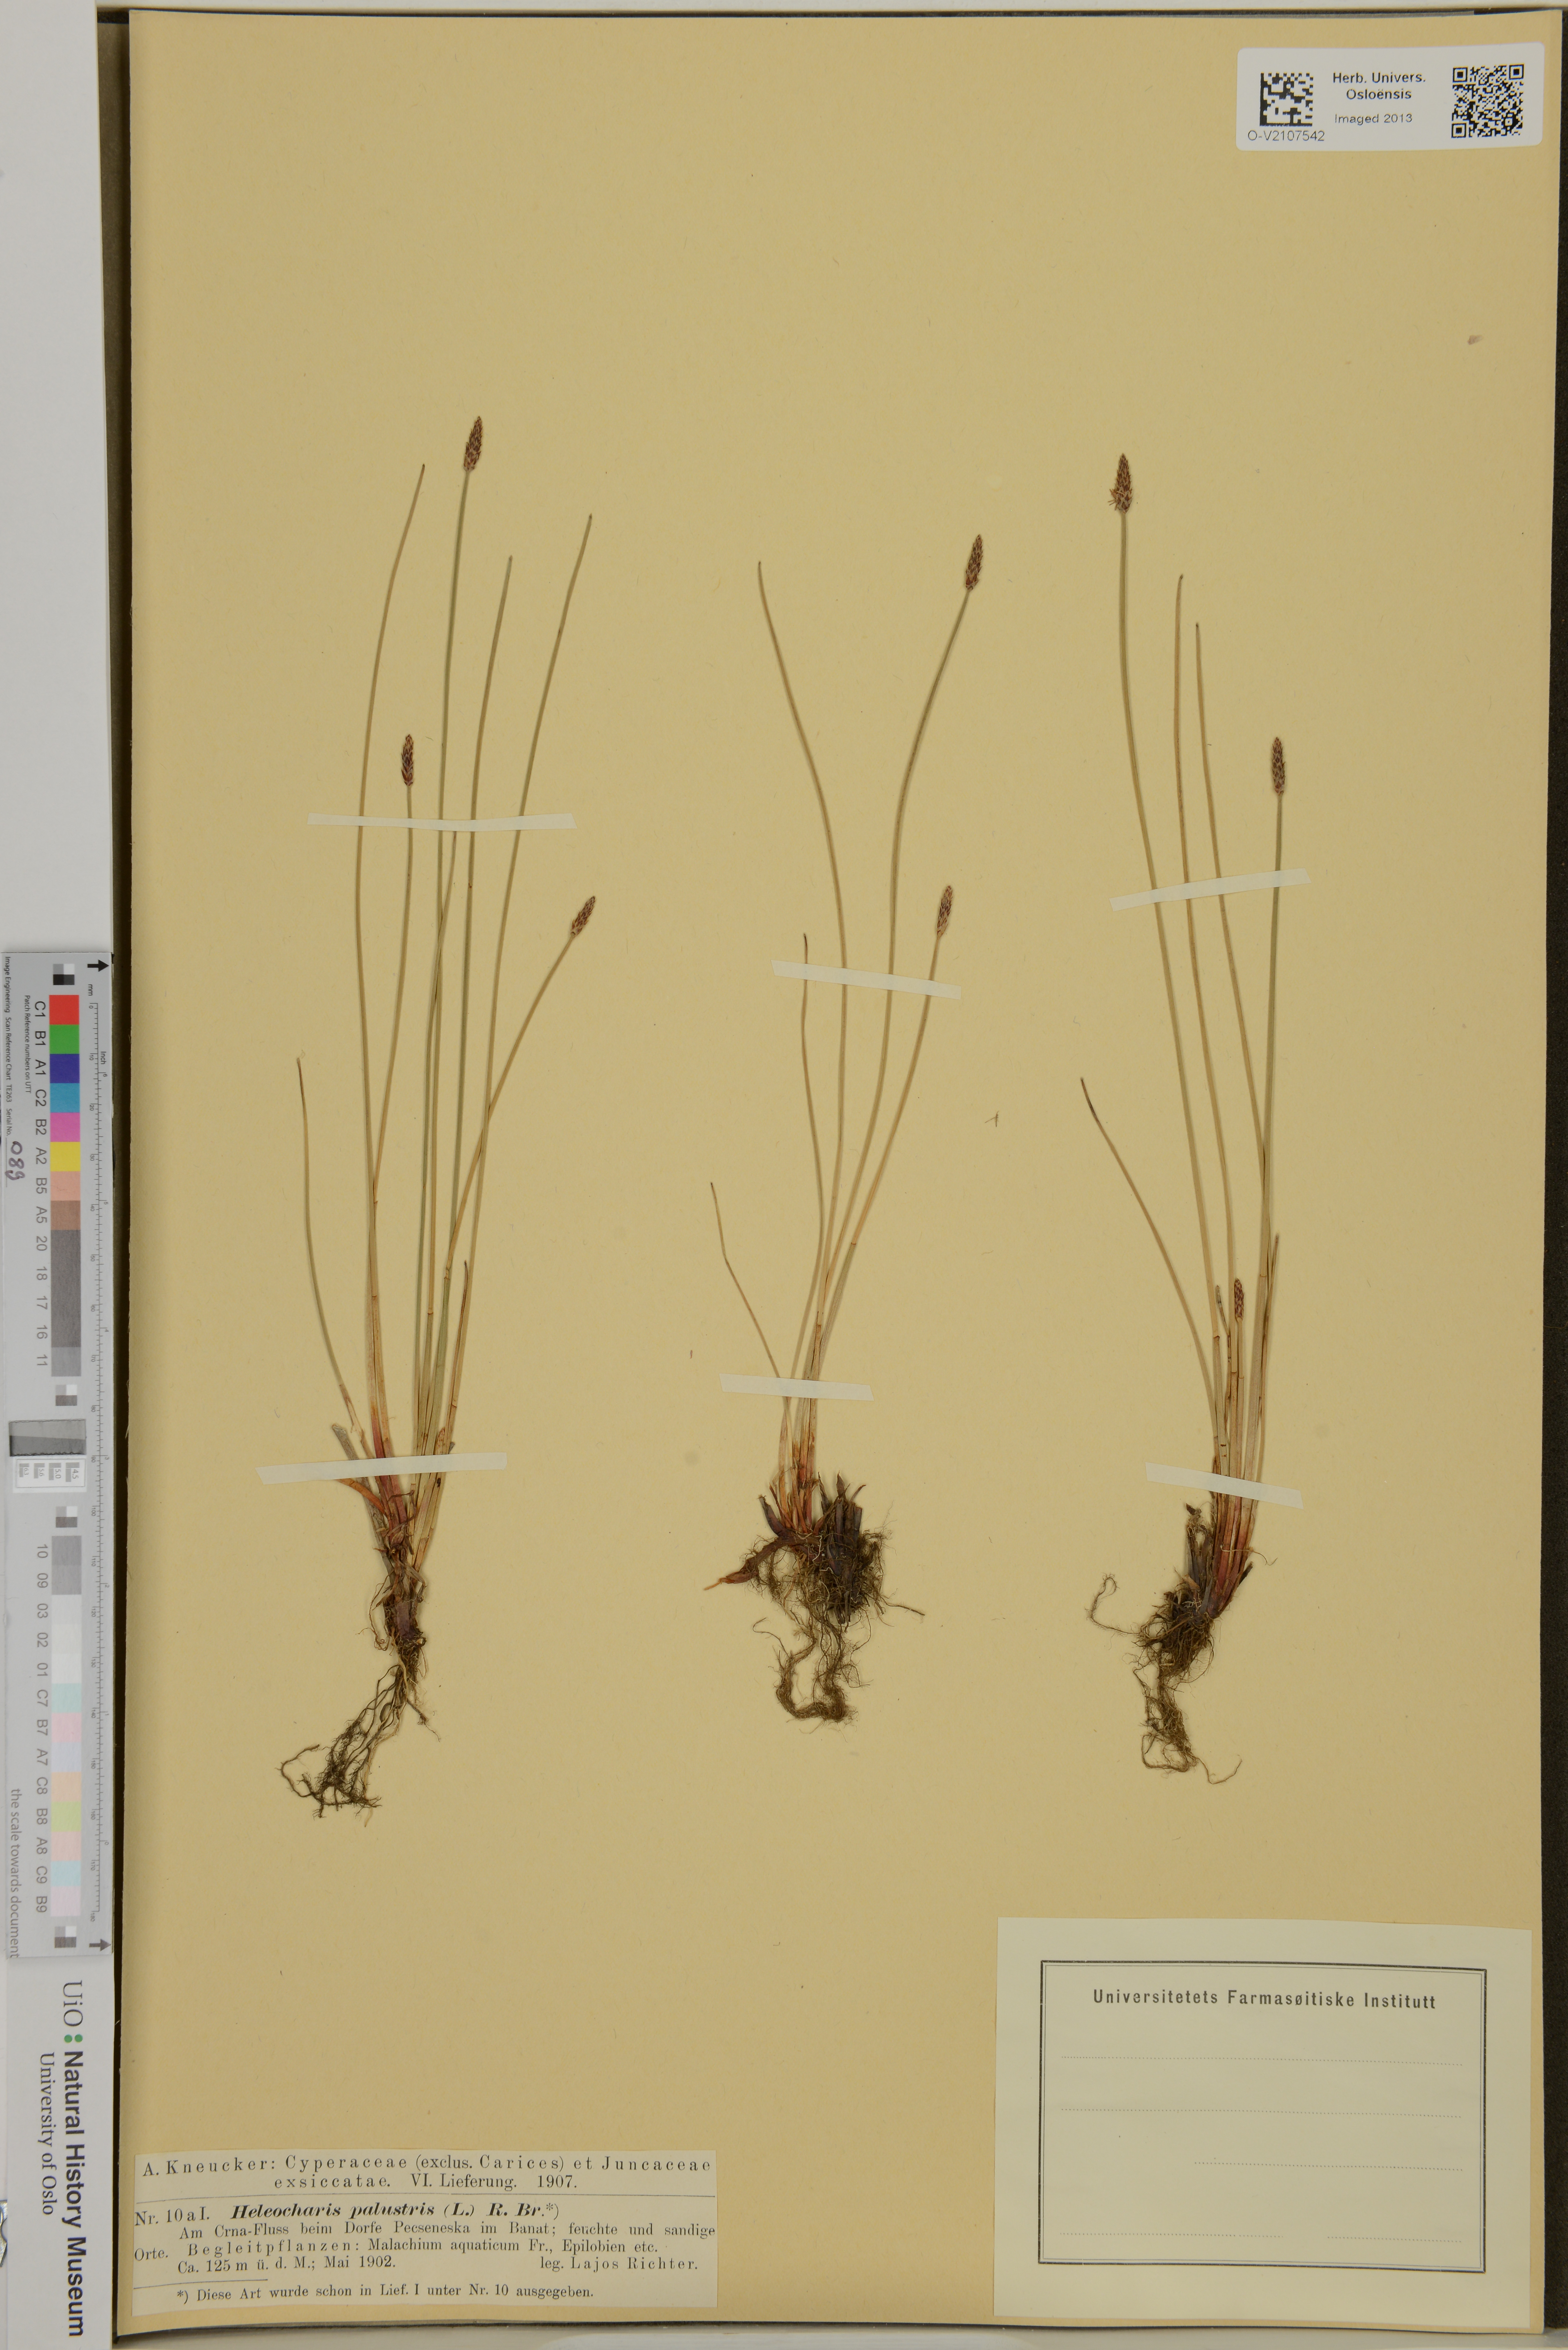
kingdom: Plantae
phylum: Tracheophyta
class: Liliopsida
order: Poales
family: Cyperaceae
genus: Eleocharis
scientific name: Eleocharis palustris
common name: Common spike-rush
